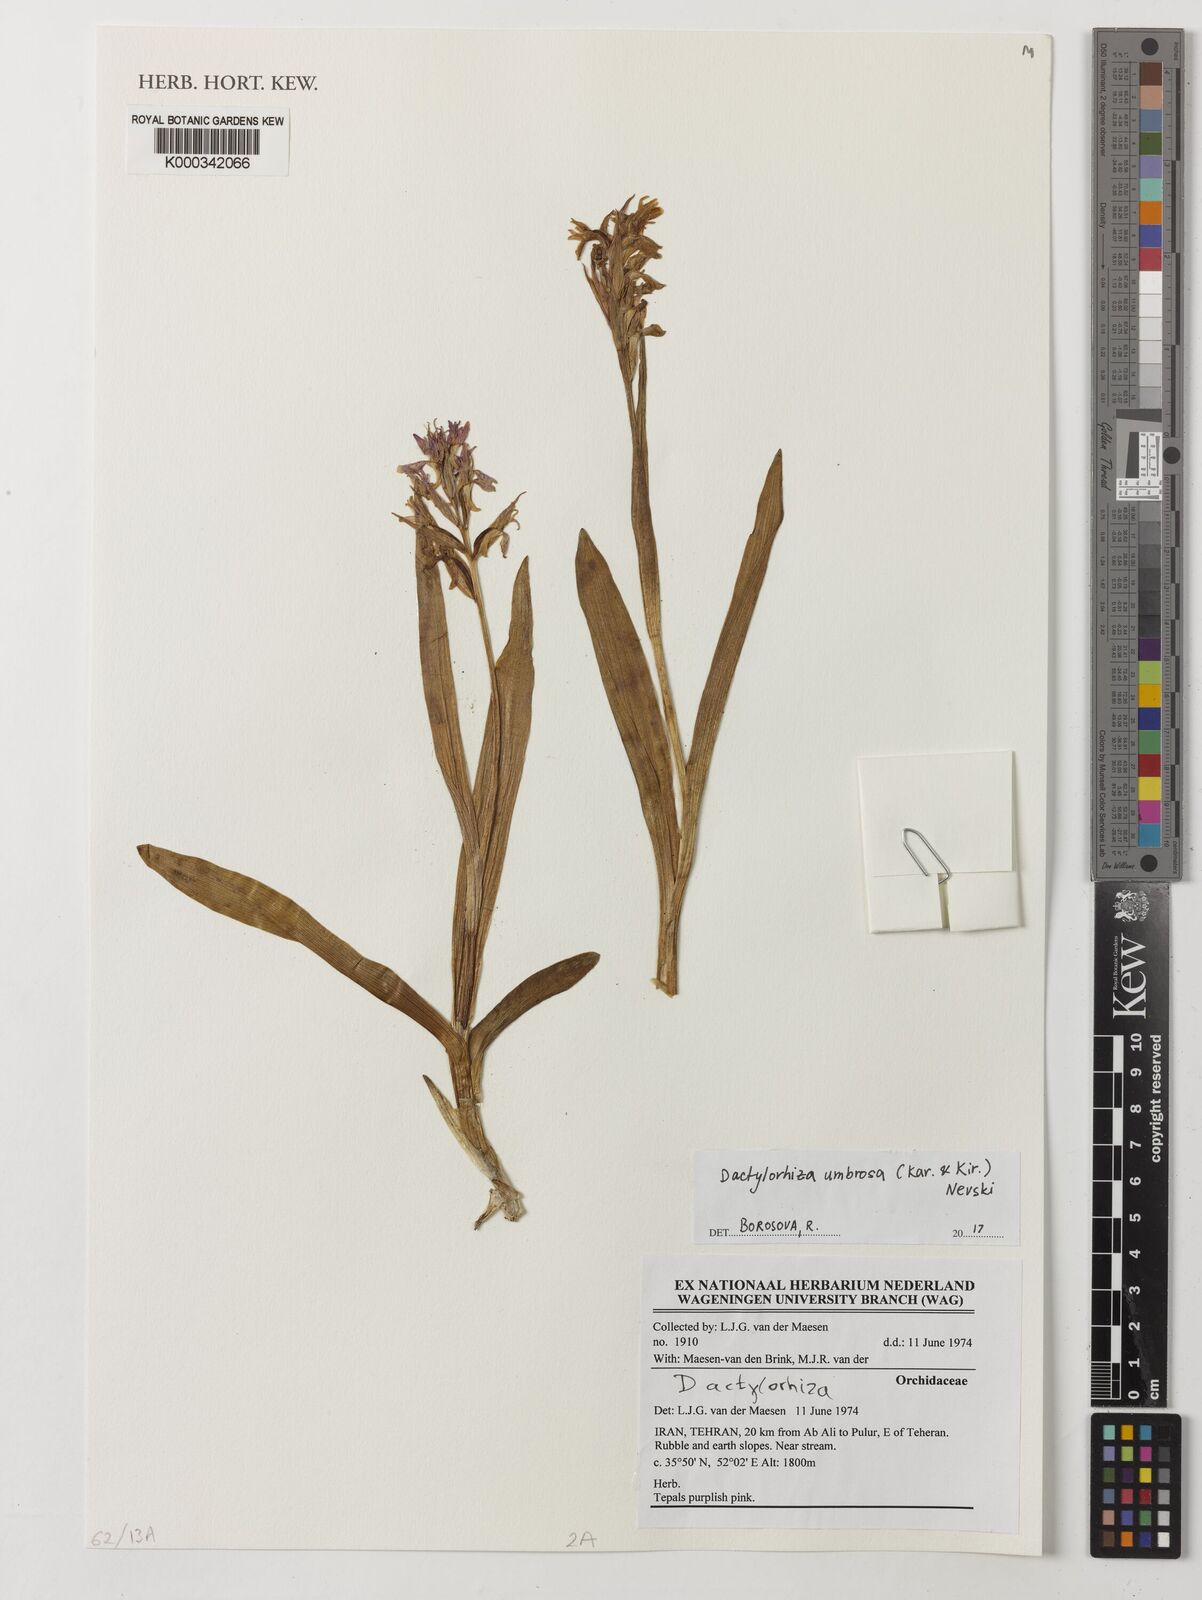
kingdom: Plantae
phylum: Tracheophyta
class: Liliopsida
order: Asparagales
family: Orchidaceae
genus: Dactylorhiza
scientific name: Dactylorhiza incarnata
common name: Early marsh-orchid
